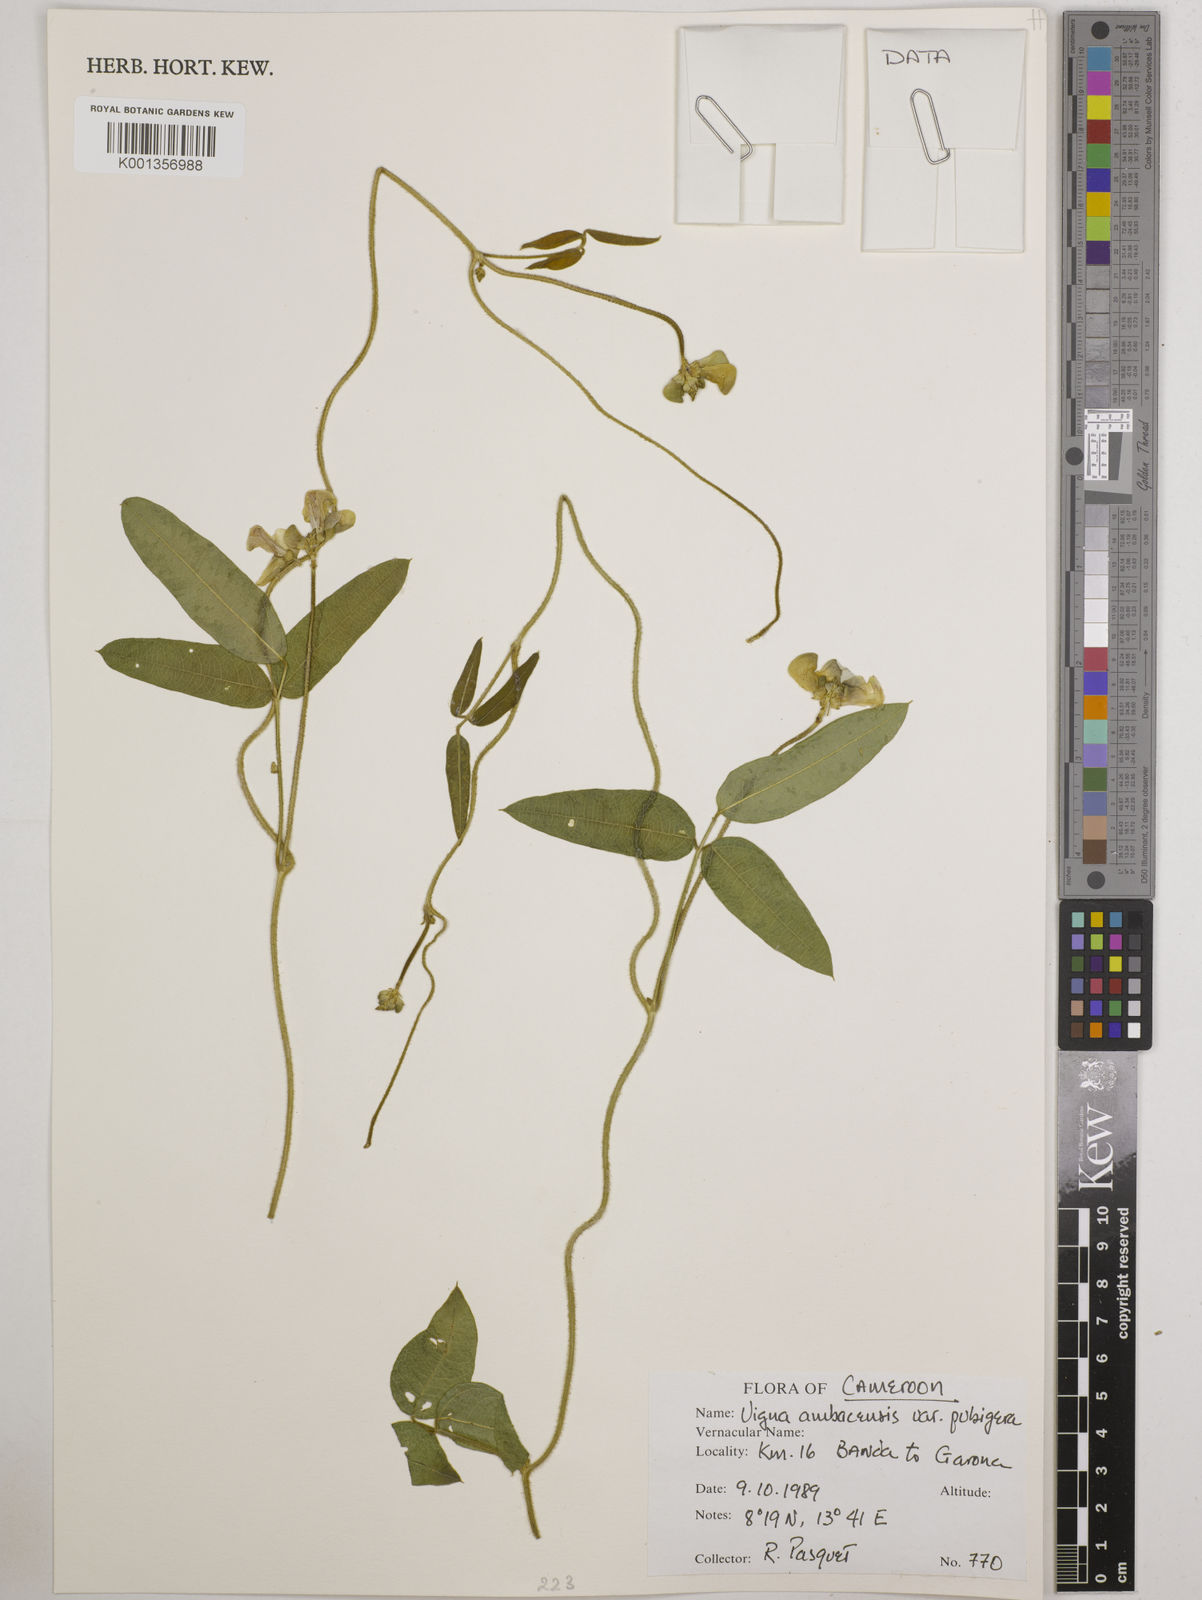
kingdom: Plantae
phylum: Tracheophyta
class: Magnoliopsida
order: Fabales
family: Fabaceae
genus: Vigna
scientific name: Vigna pubigera
